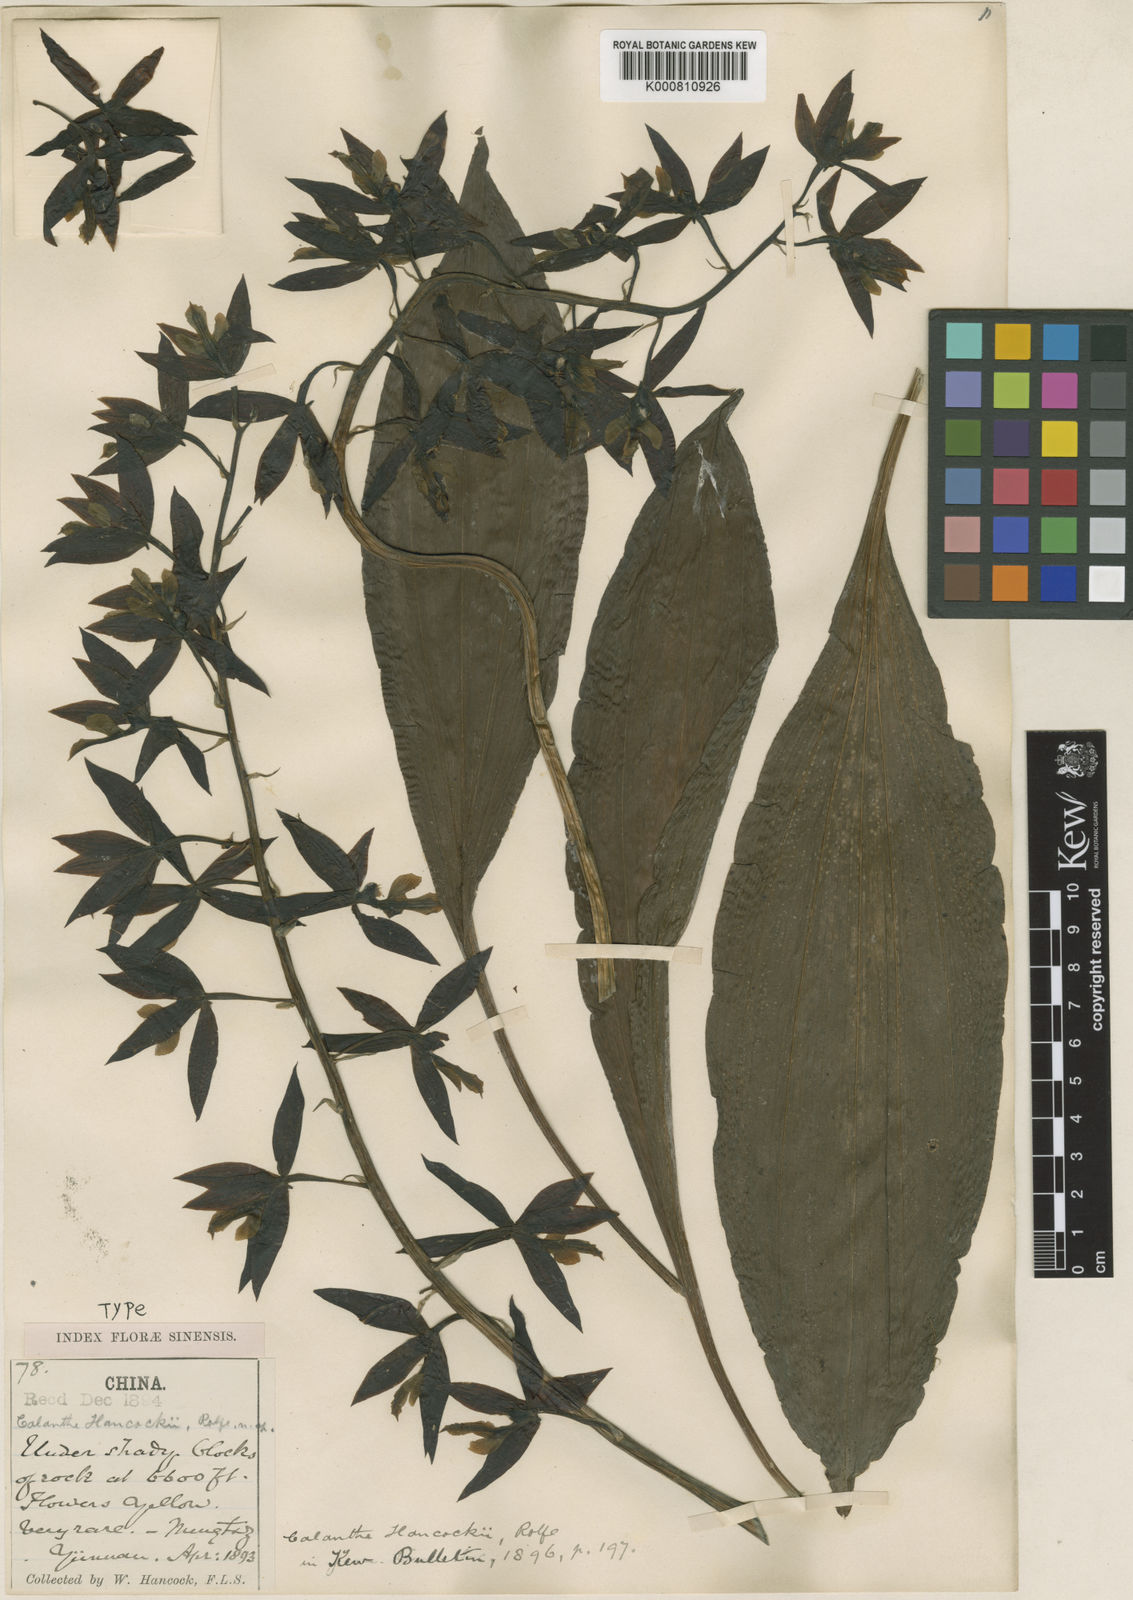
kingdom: Plantae
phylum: Tracheophyta
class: Liliopsida
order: Asparagales
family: Orchidaceae
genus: Calanthe
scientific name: Calanthe hancockii
